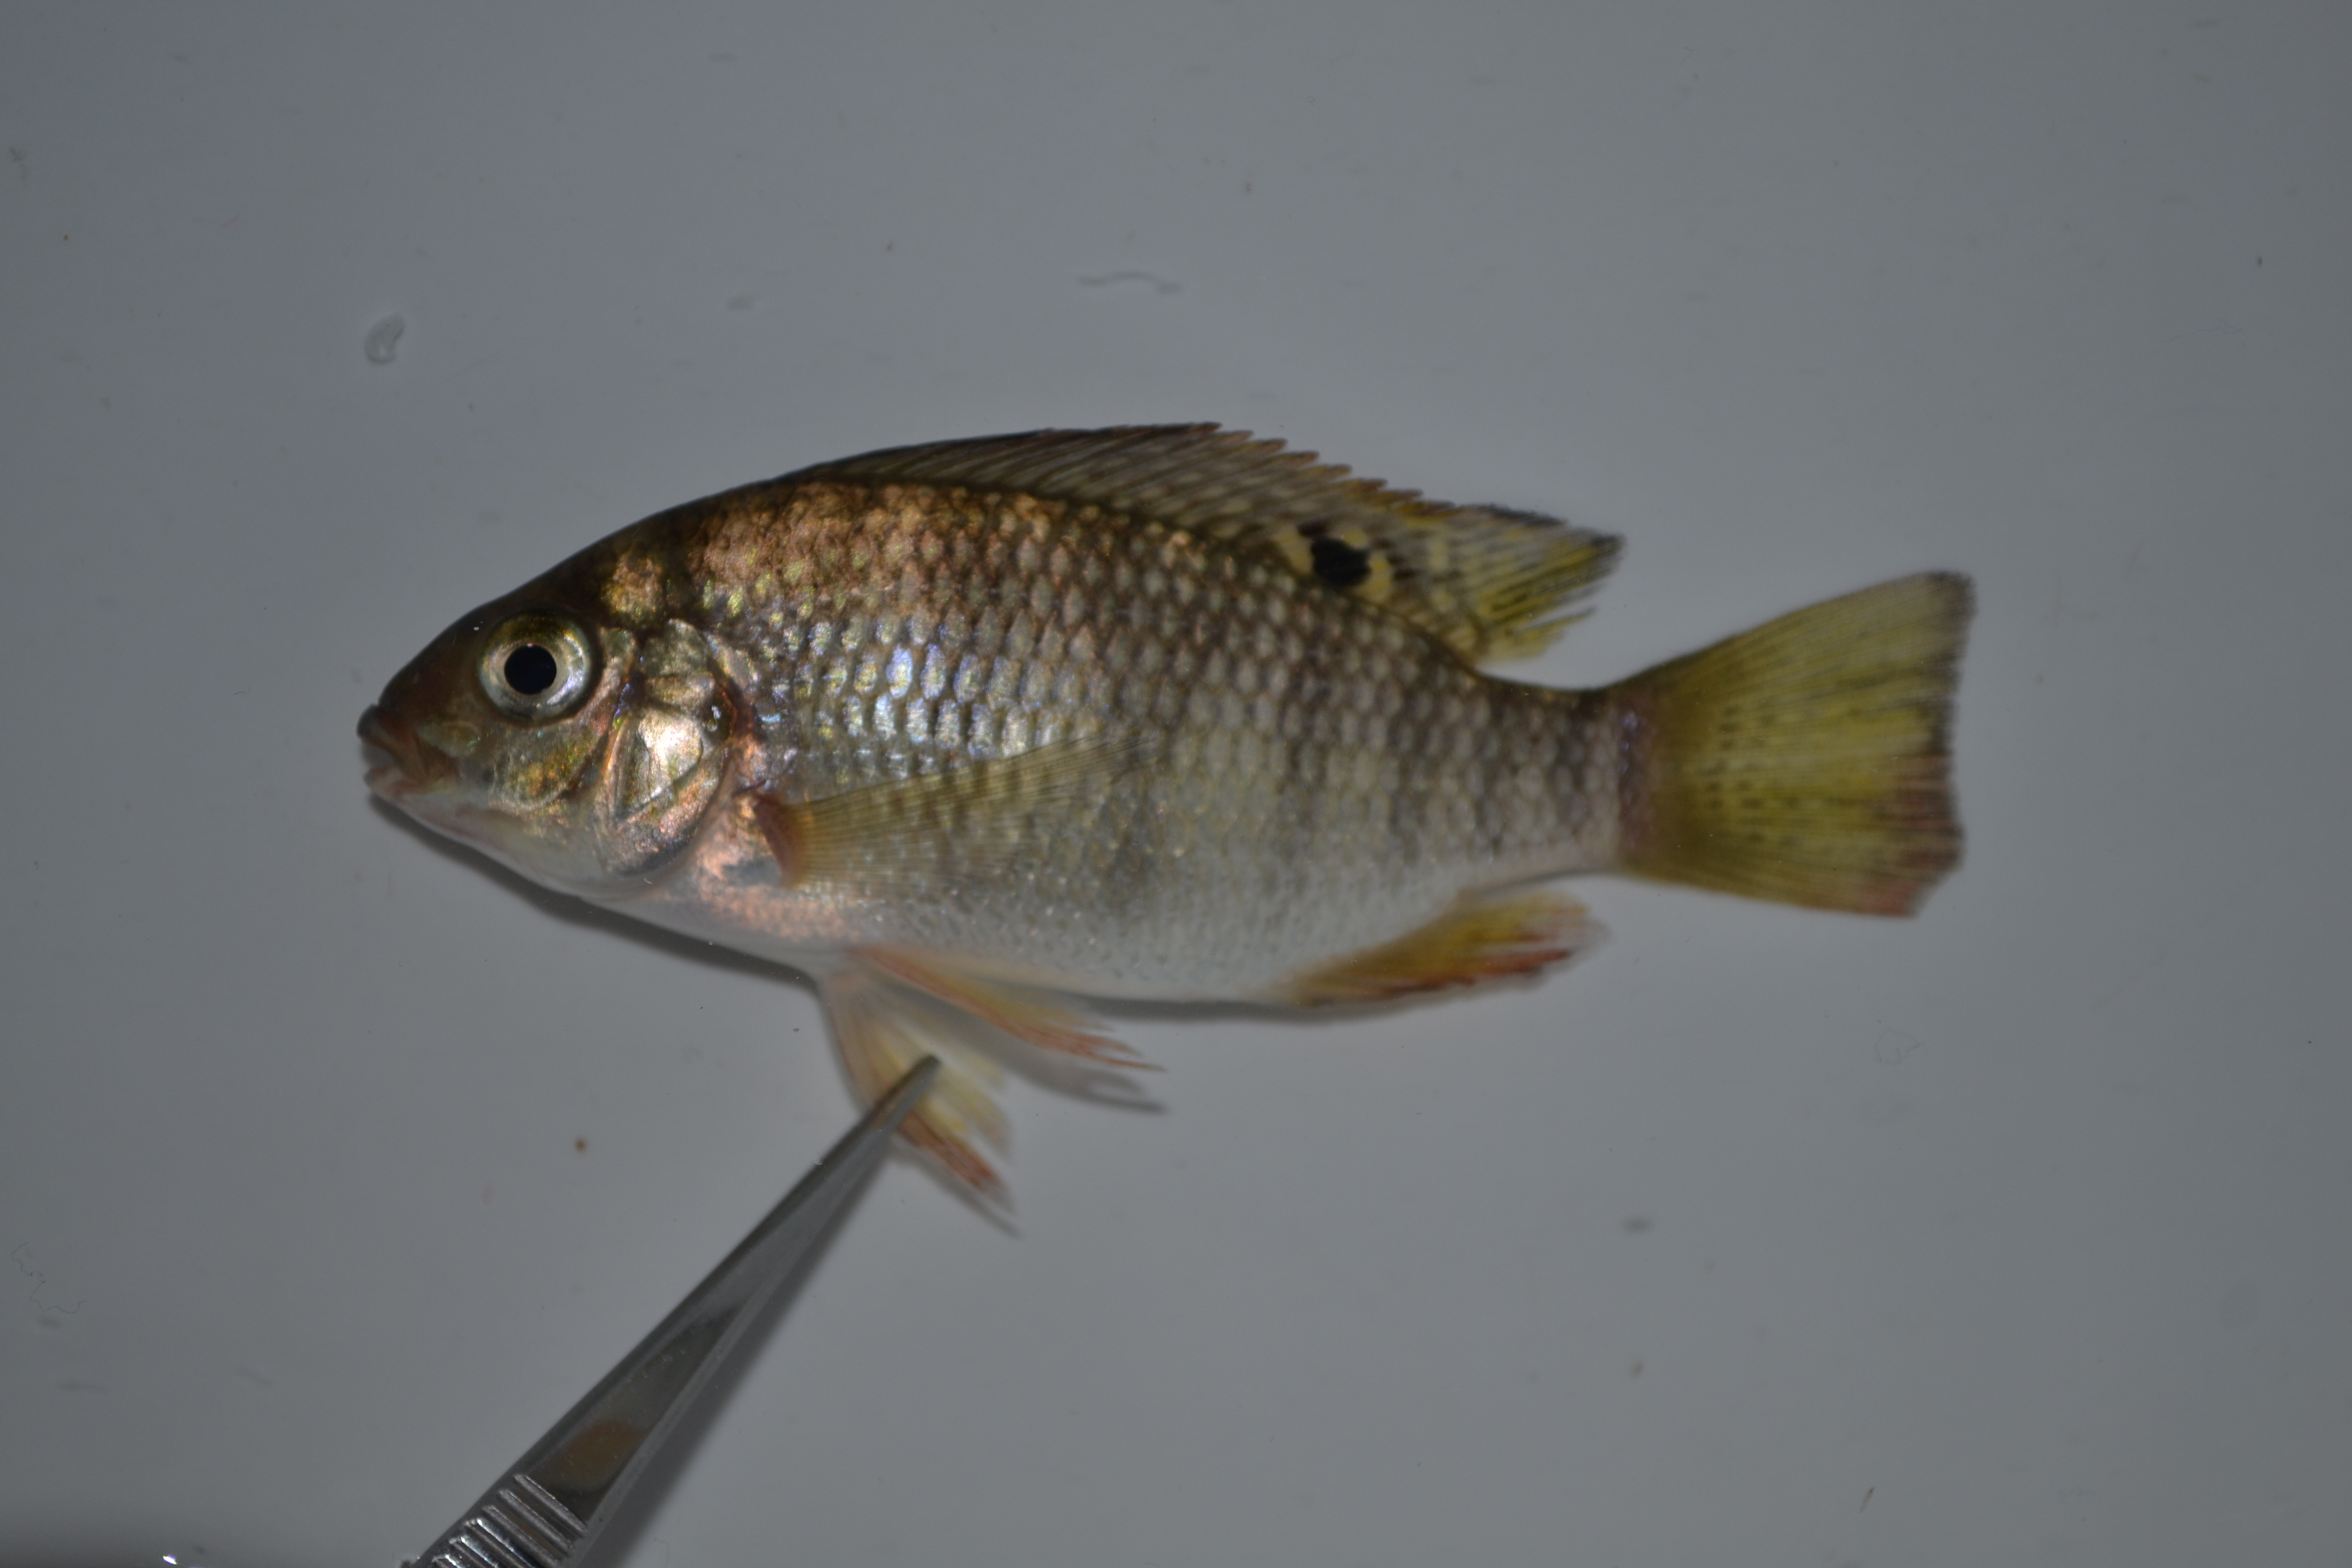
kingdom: Animalia
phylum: Chordata
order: Perciformes
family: Cichlidae
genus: Coptodon
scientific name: Coptodon rendalli
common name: Redbreast tilapia
